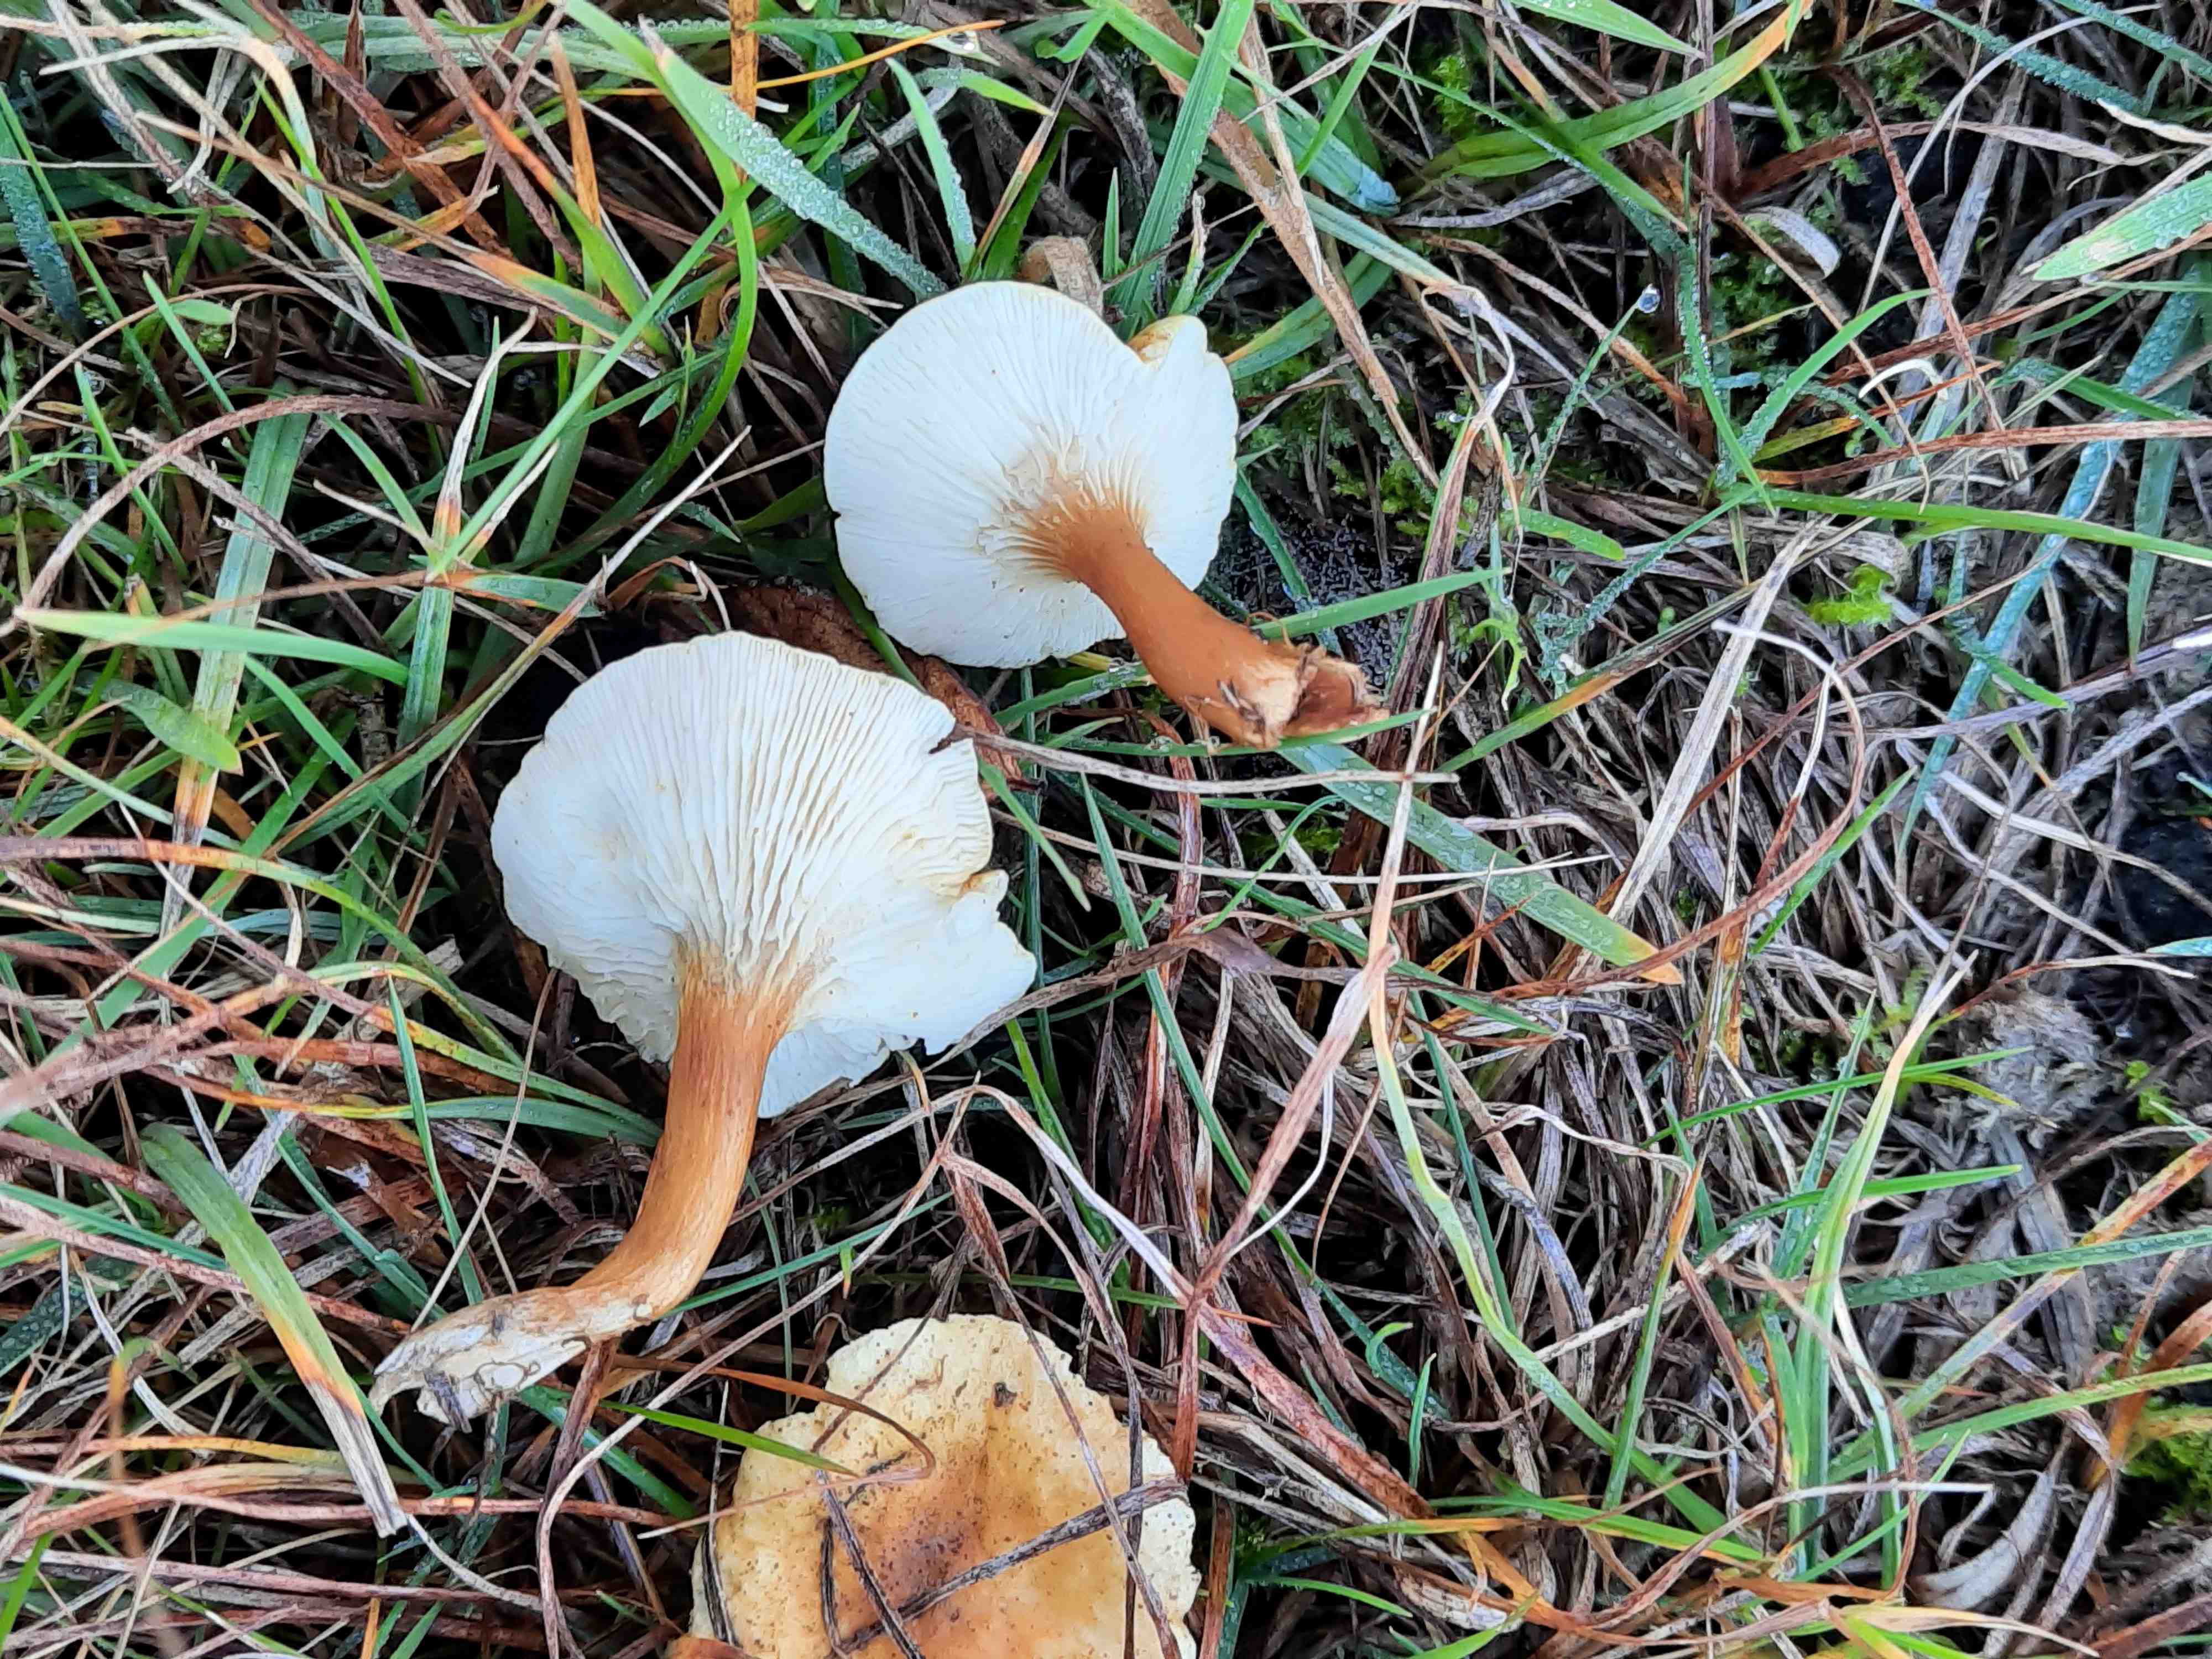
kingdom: Fungi
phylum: Basidiomycota
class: Agaricomycetes
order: Boletales
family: Hygrophoropsidaceae
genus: Hygrophoropsis
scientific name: Hygrophoropsis pallida
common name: bleg orangekantarel
